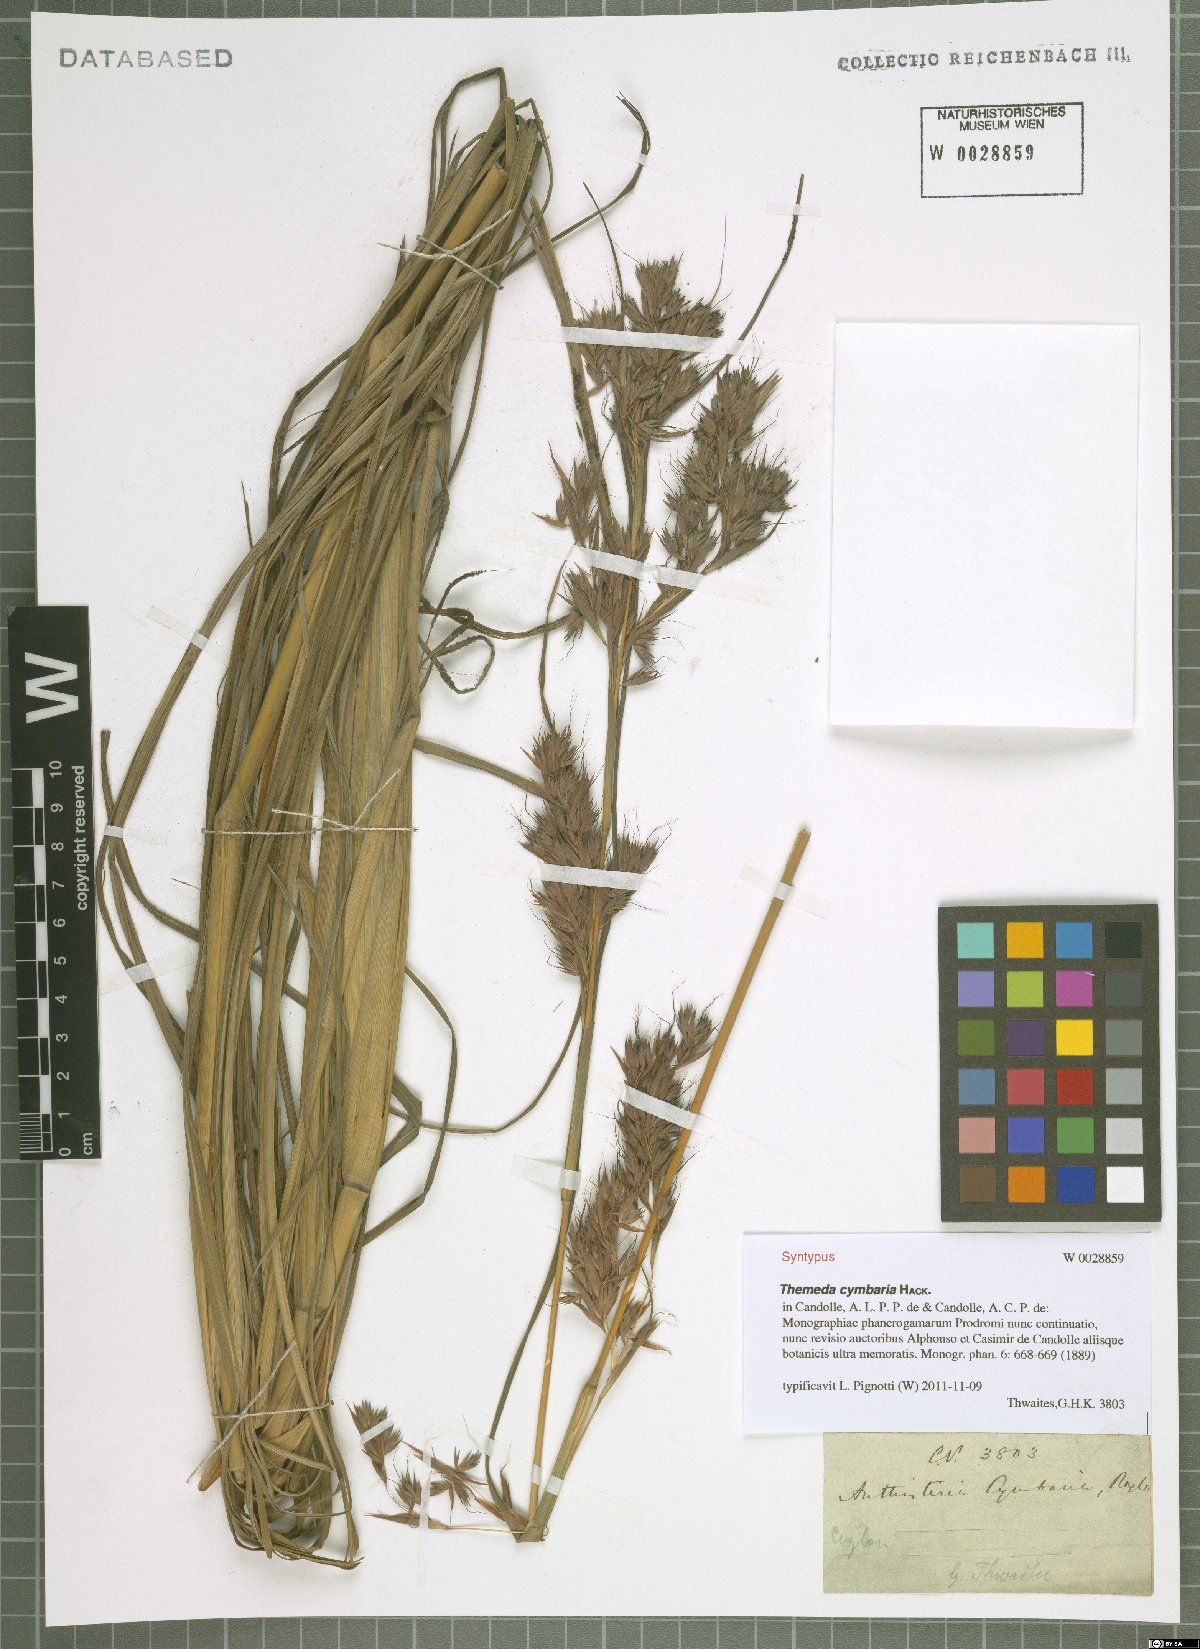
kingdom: Plantae
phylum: Tracheophyta
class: Liliopsida
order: Poales
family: Poaceae
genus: Themeda
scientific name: Themeda cymbaria
